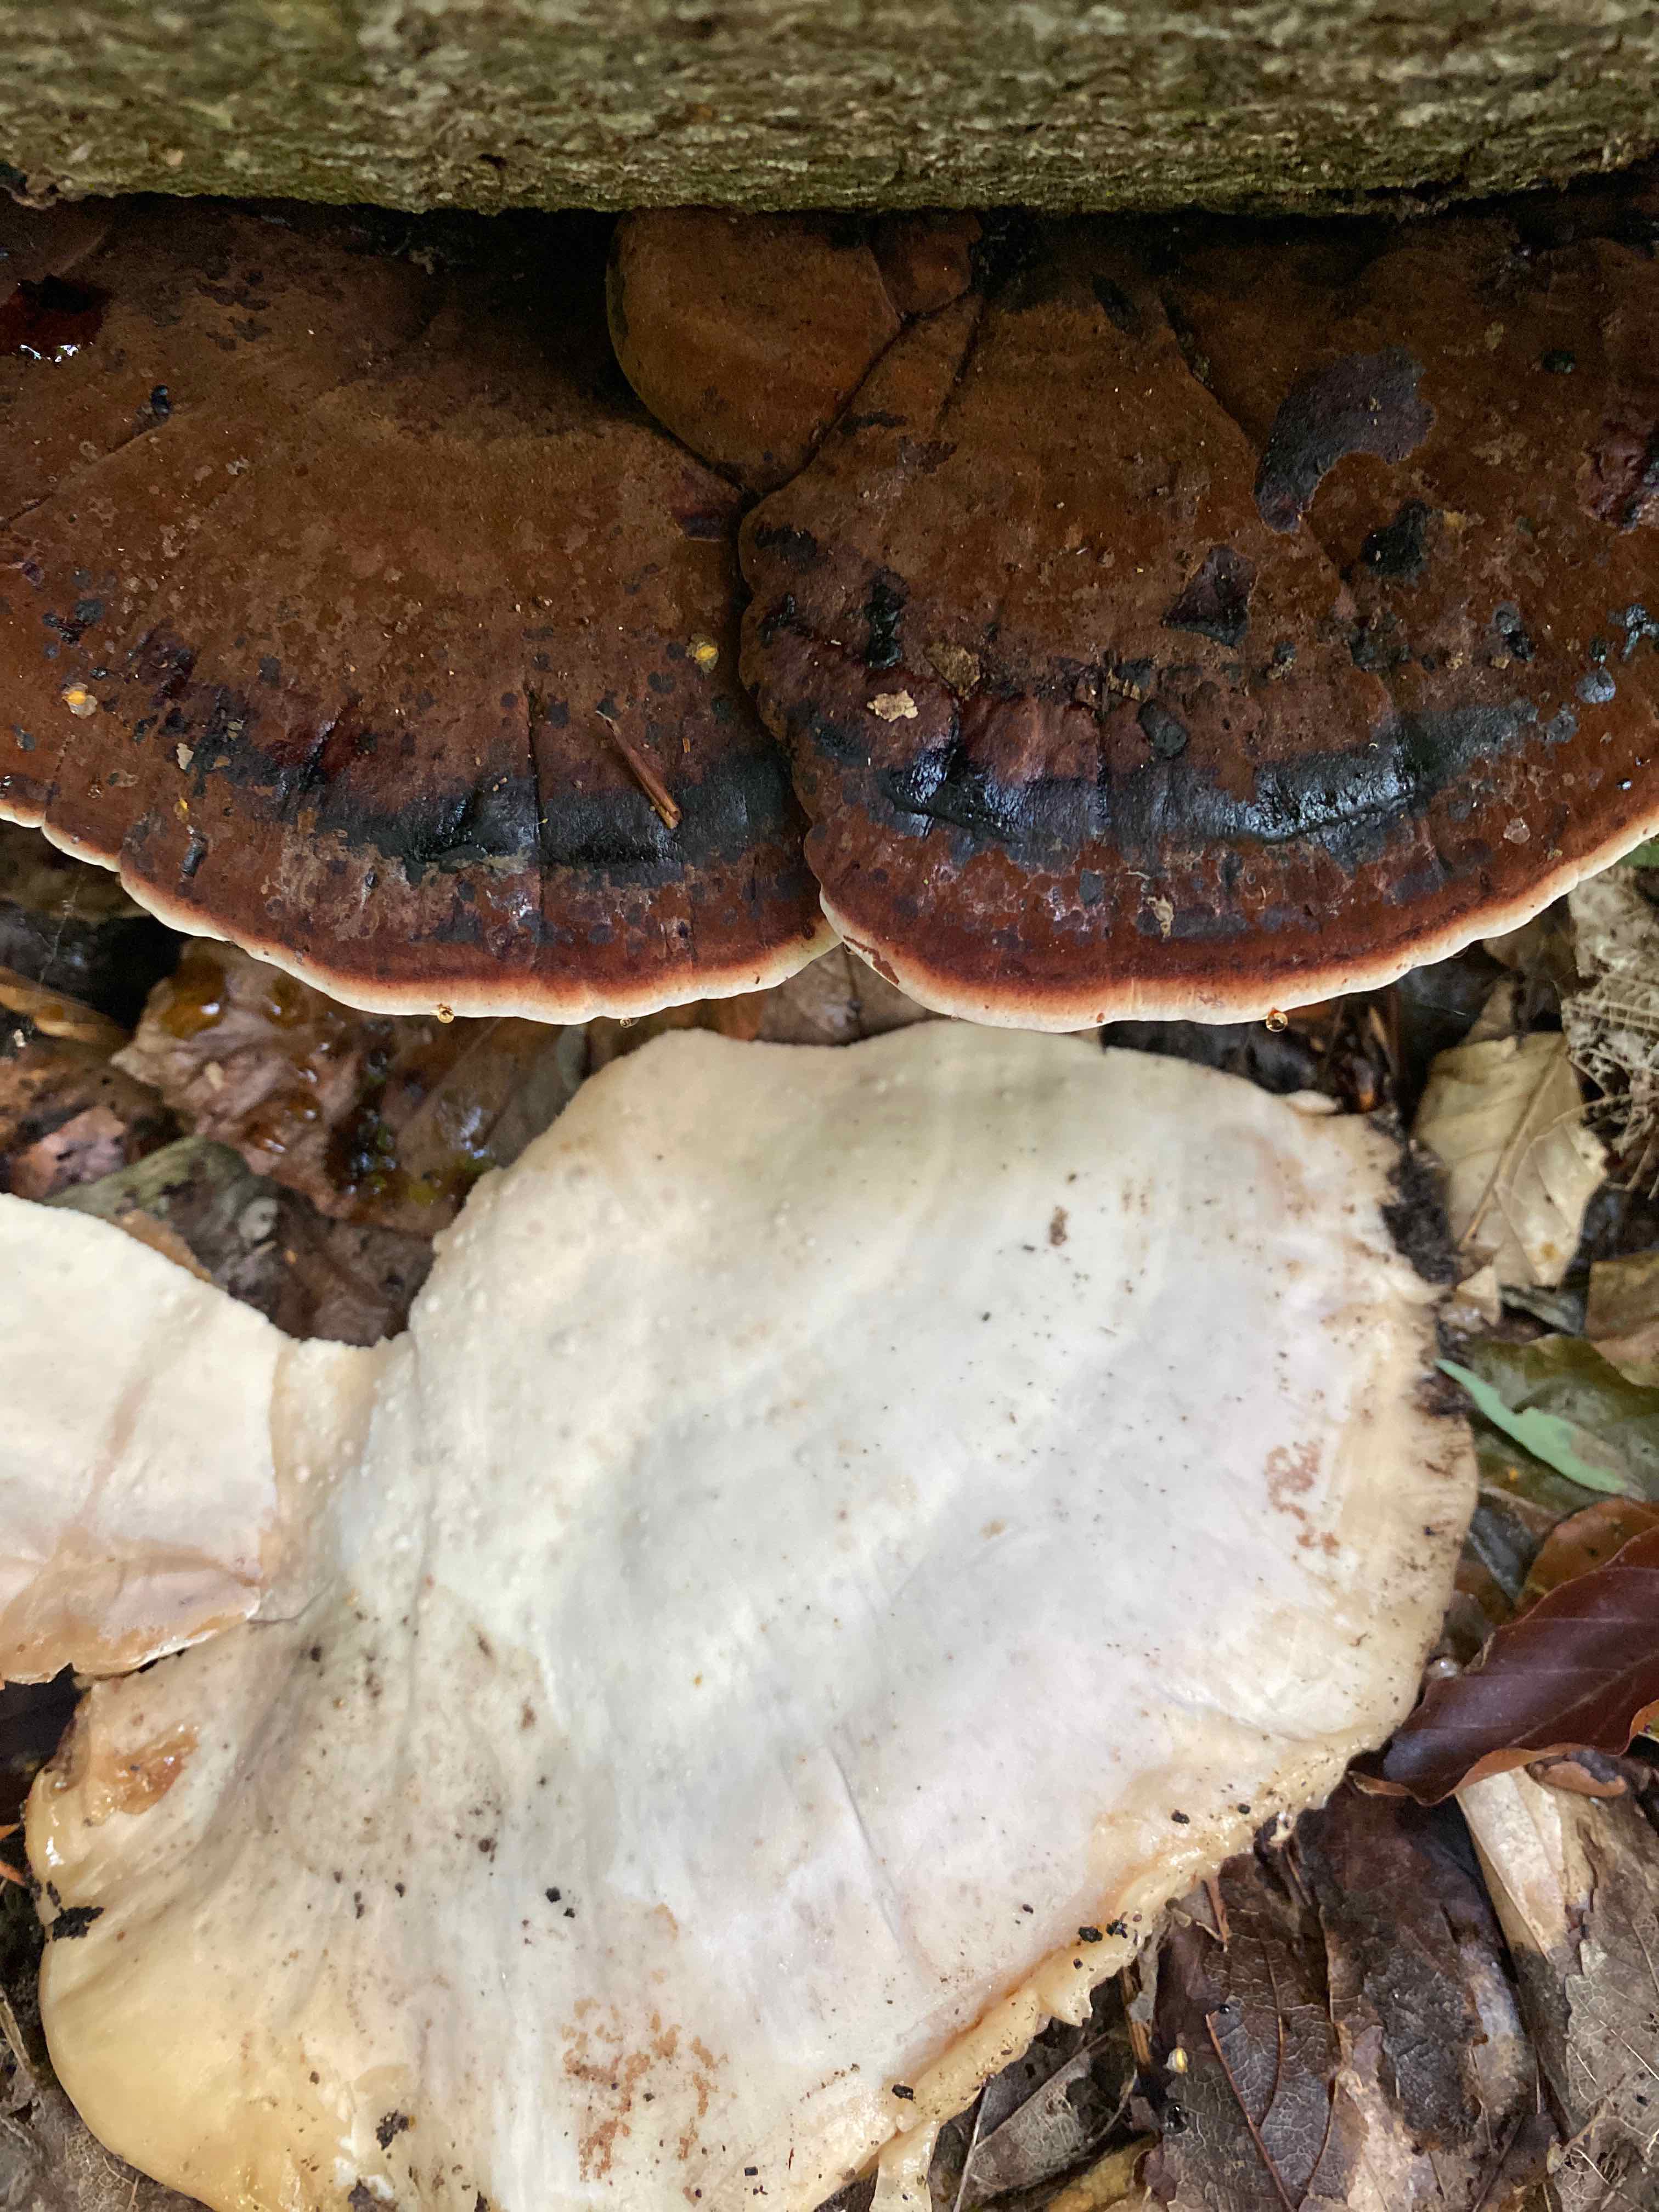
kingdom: Fungi
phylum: Basidiomycota
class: Agaricomycetes
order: Polyporales
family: Ischnodermataceae
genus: Ischnoderma
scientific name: Ischnoderma resinosum
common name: løv-tjæreporesvamp
